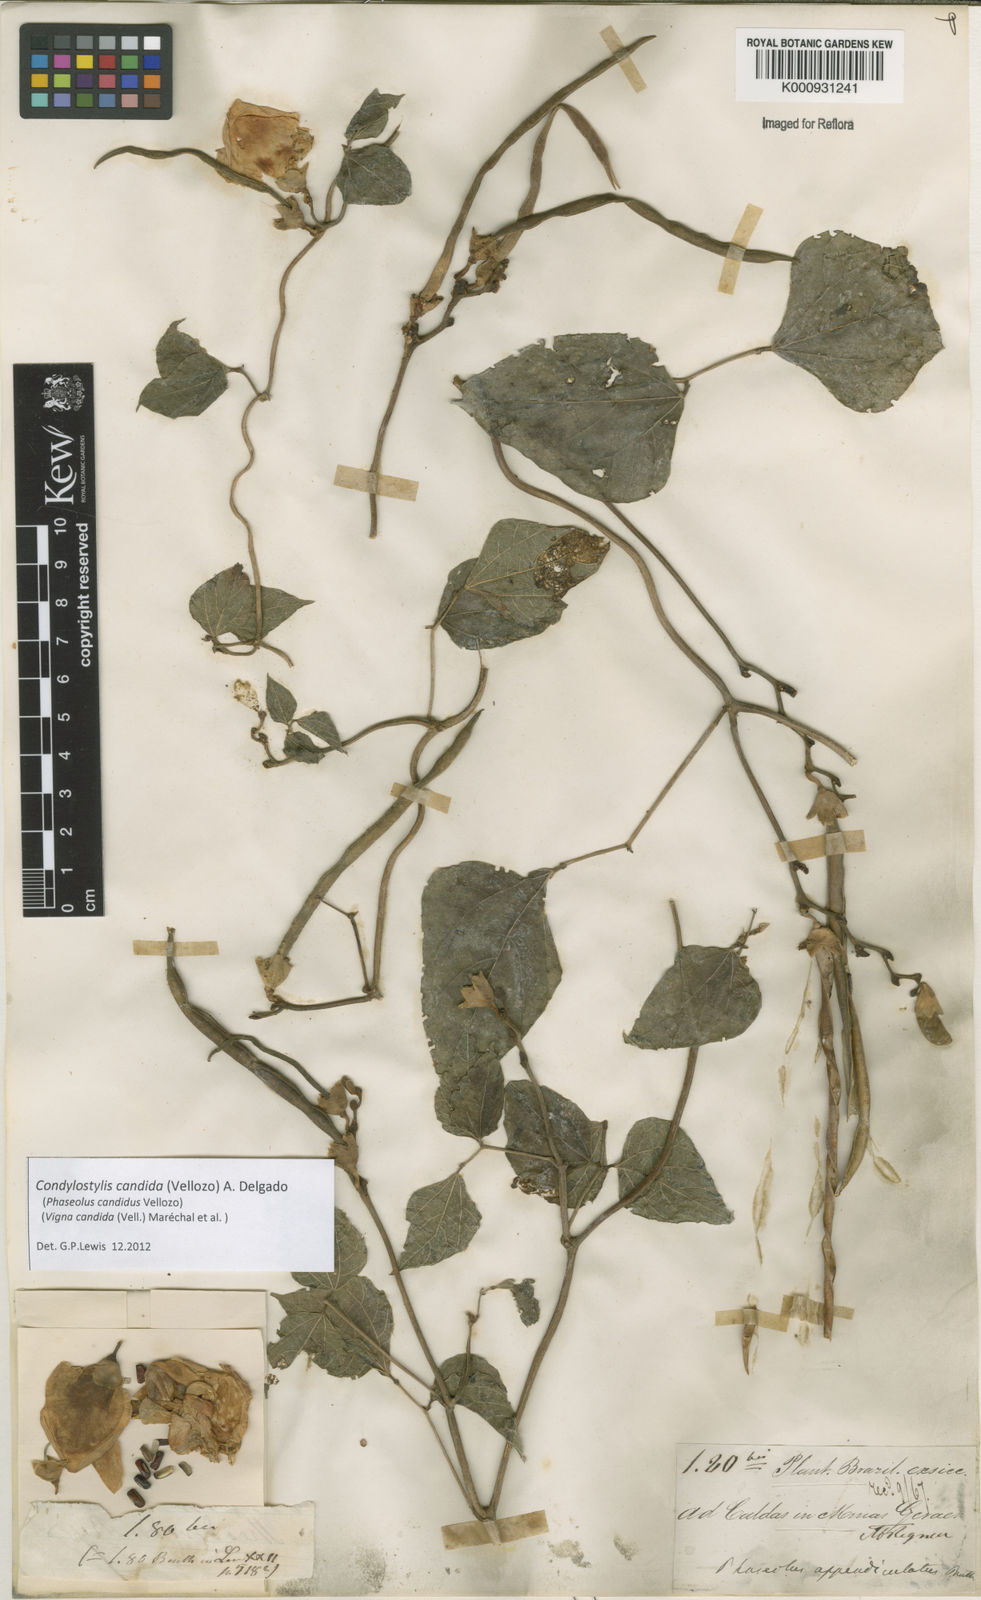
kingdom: Plantae
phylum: Tracheophyta
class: Magnoliopsida
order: Fabales
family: Fabaceae
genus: Condylostylis
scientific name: Condylostylis candida
